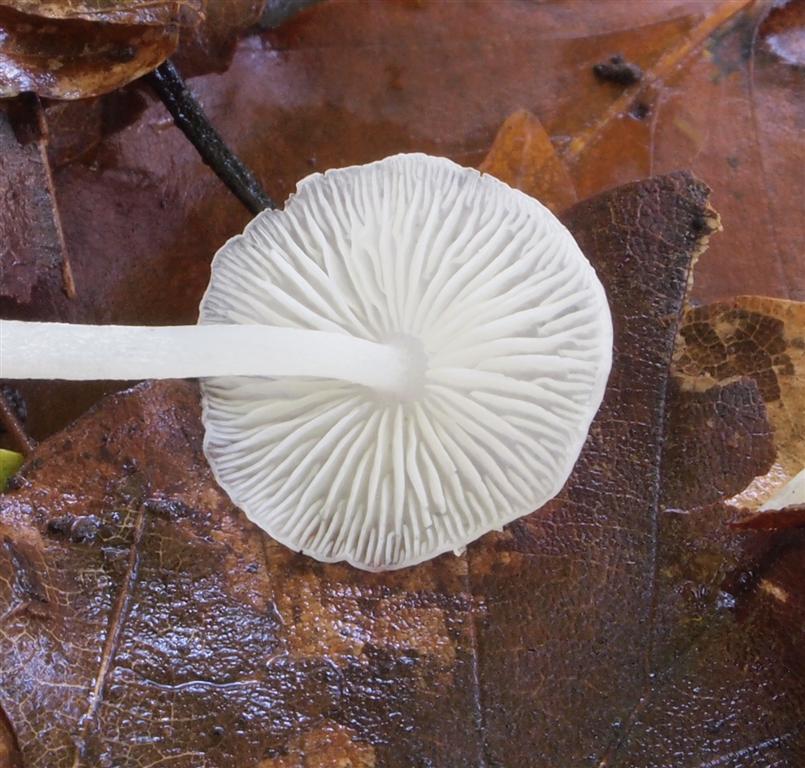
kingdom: Fungi
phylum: Basidiomycota
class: Agaricomycetes
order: Agaricales
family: Mycenaceae
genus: Hemimycena
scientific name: Hemimycena lactea
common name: mælkehvid huesvamp
